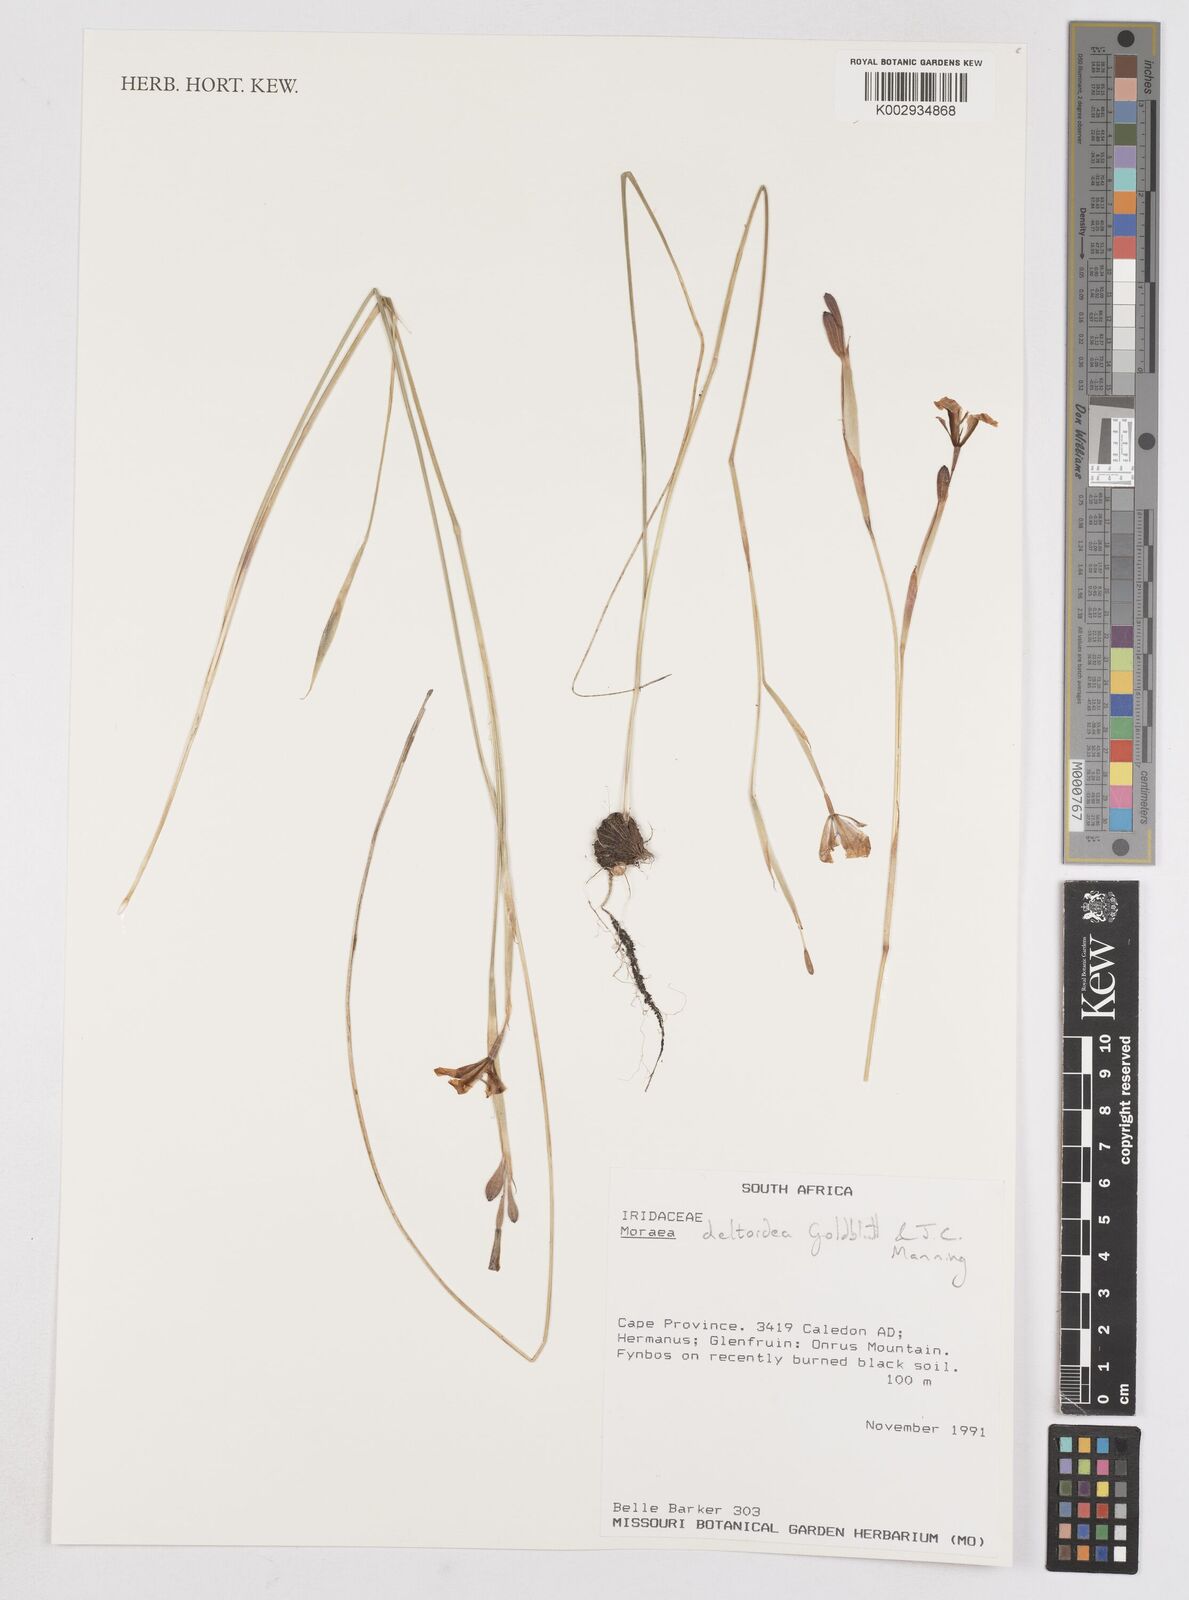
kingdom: Plantae
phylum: Tracheophyta
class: Liliopsida
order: Asparagales
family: Iridaceae
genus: Moraea
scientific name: Moraea deltoidea
